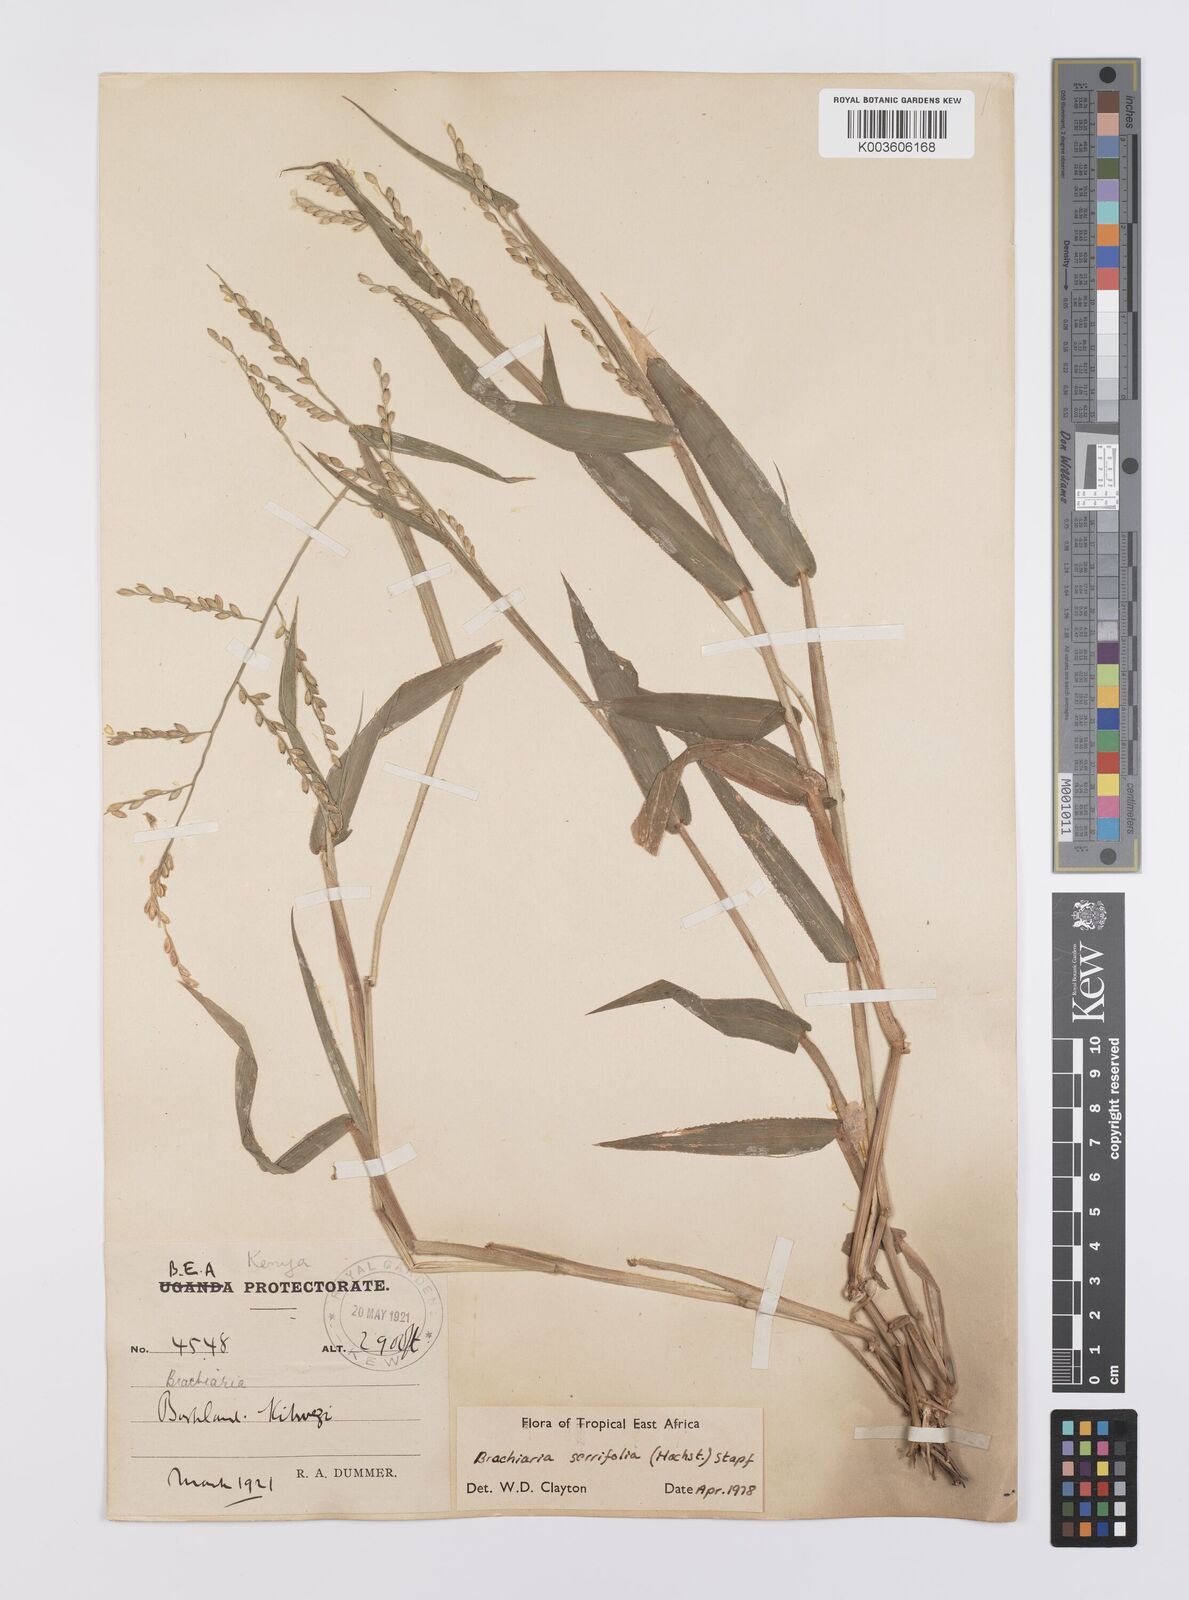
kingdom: Plantae
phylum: Tracheophyta
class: Liliopsida
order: Poales
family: Poaceae
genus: Urochloa
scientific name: Urochloa serrifolia
